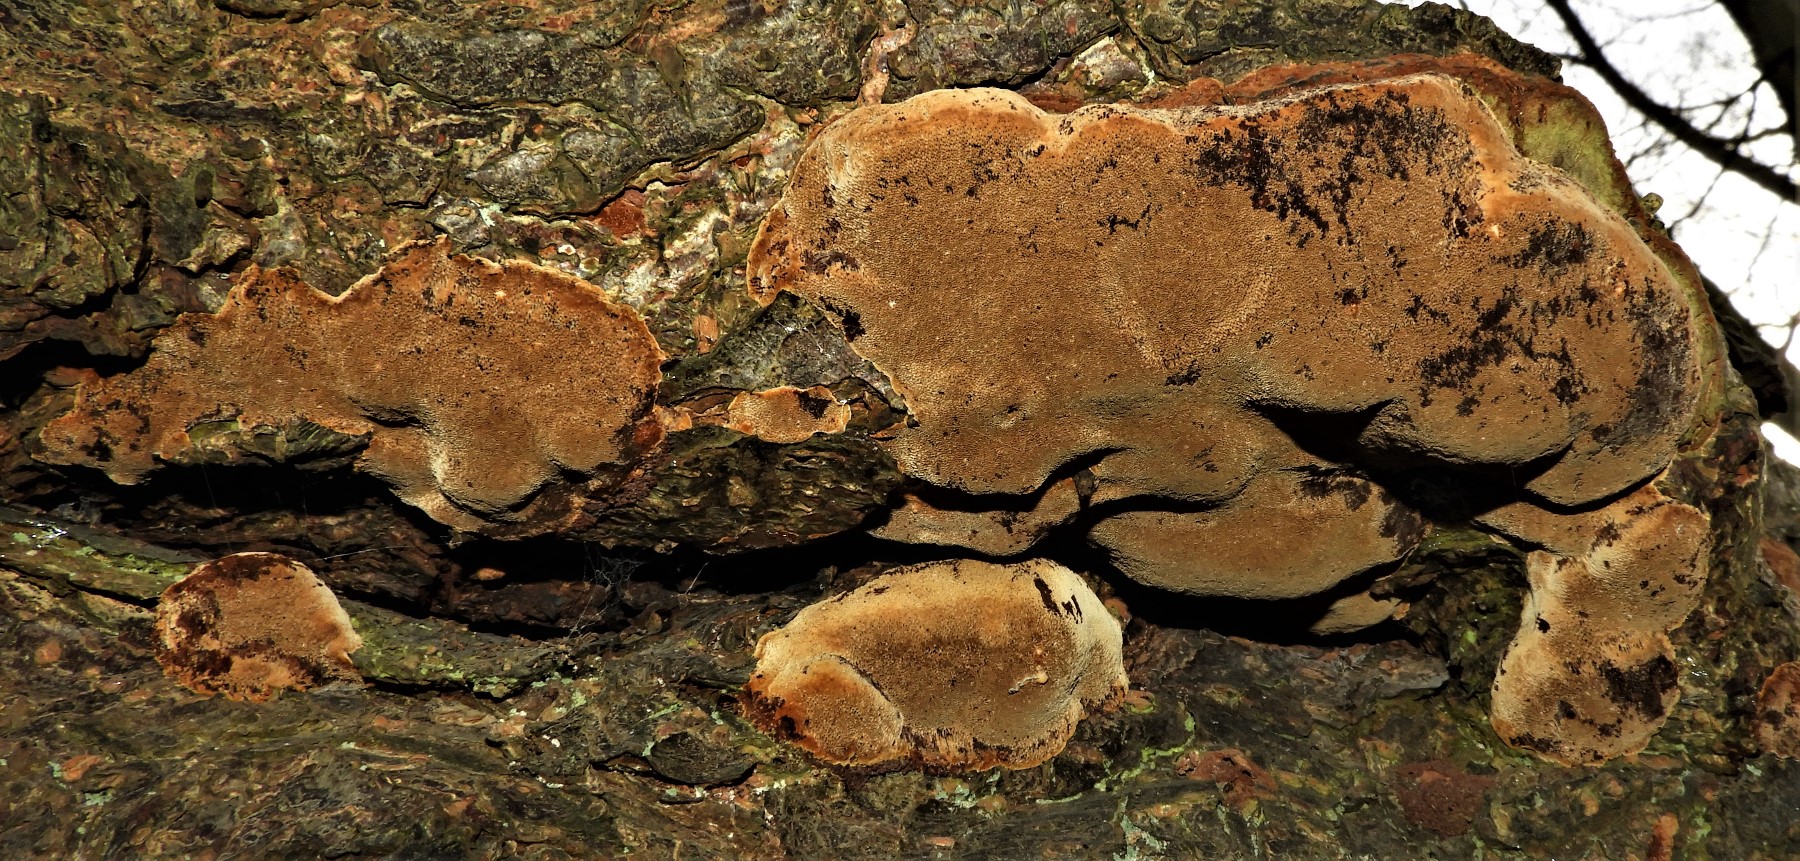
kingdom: Fungi
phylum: Basidiomycota
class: Agaricomycetes
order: Hymenochaetales
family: Hymenochaetaceae
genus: Phellinus
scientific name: Phellinus pomaceus
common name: blomme-ildporesvamp
